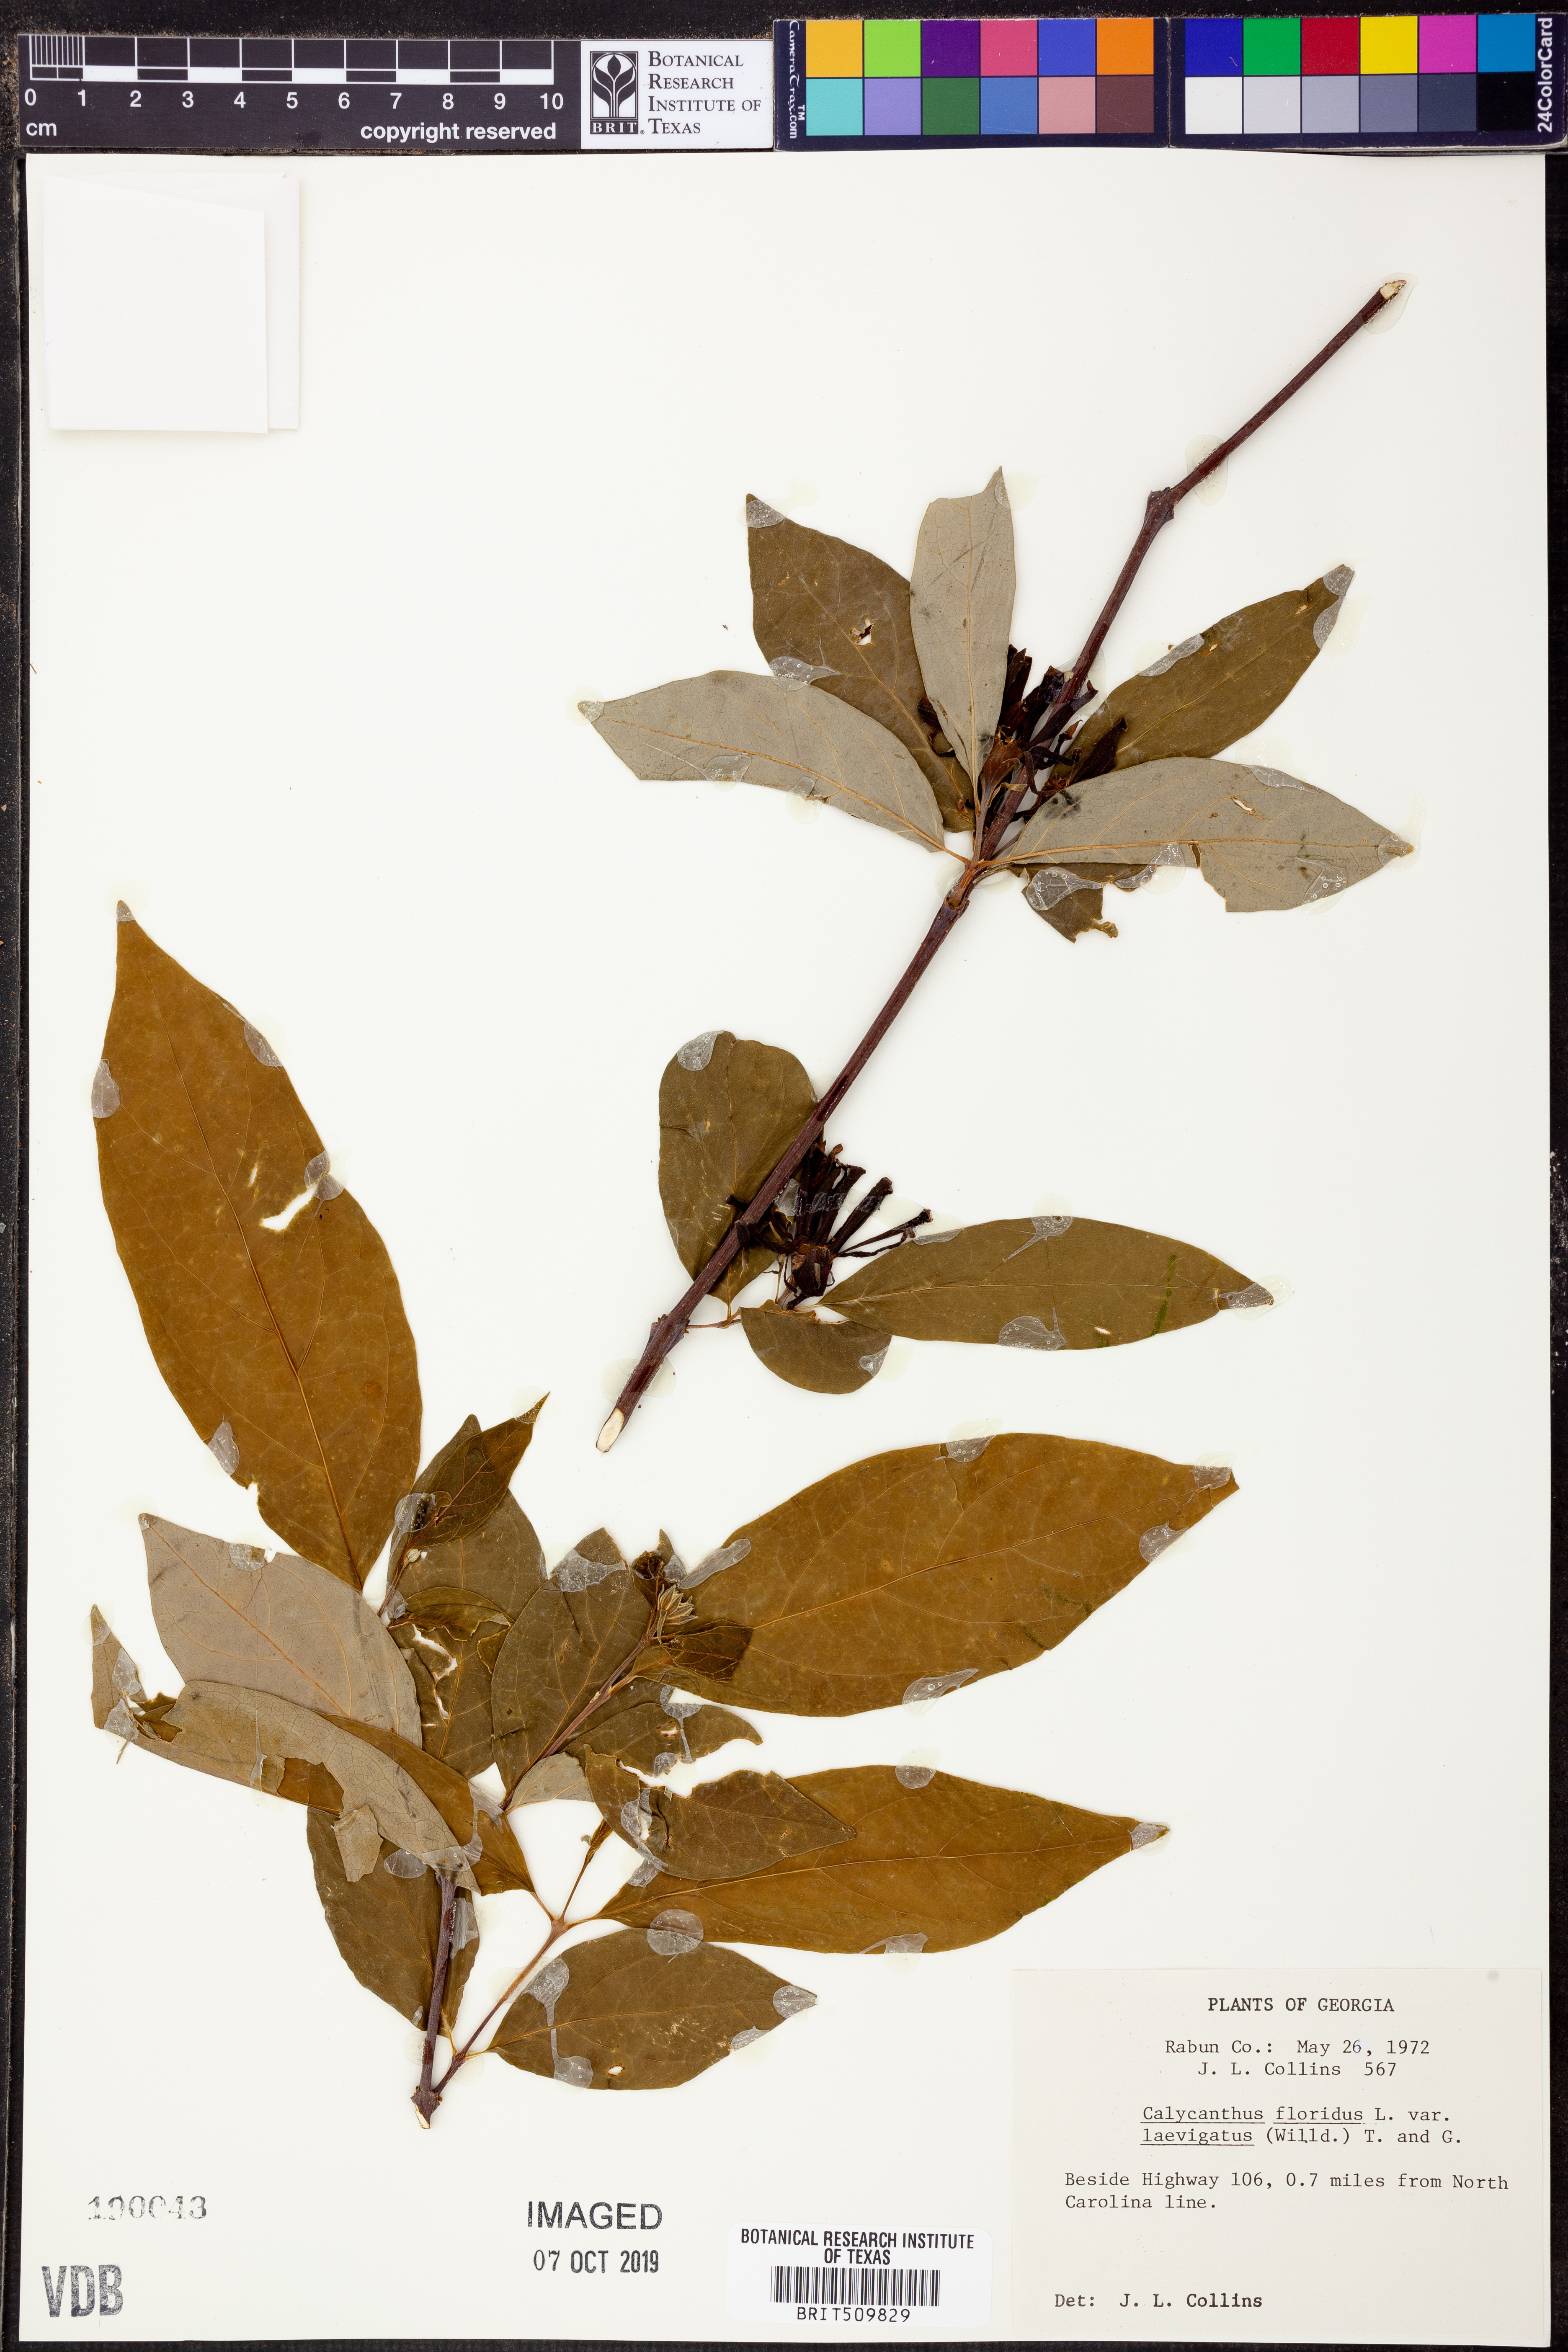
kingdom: Plantae
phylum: Tracheophyta
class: Magnoliopsida
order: Laurales
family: Calycanthaceae
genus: Calycanthus
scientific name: Calycanthus floridus
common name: Carolina-allspice
